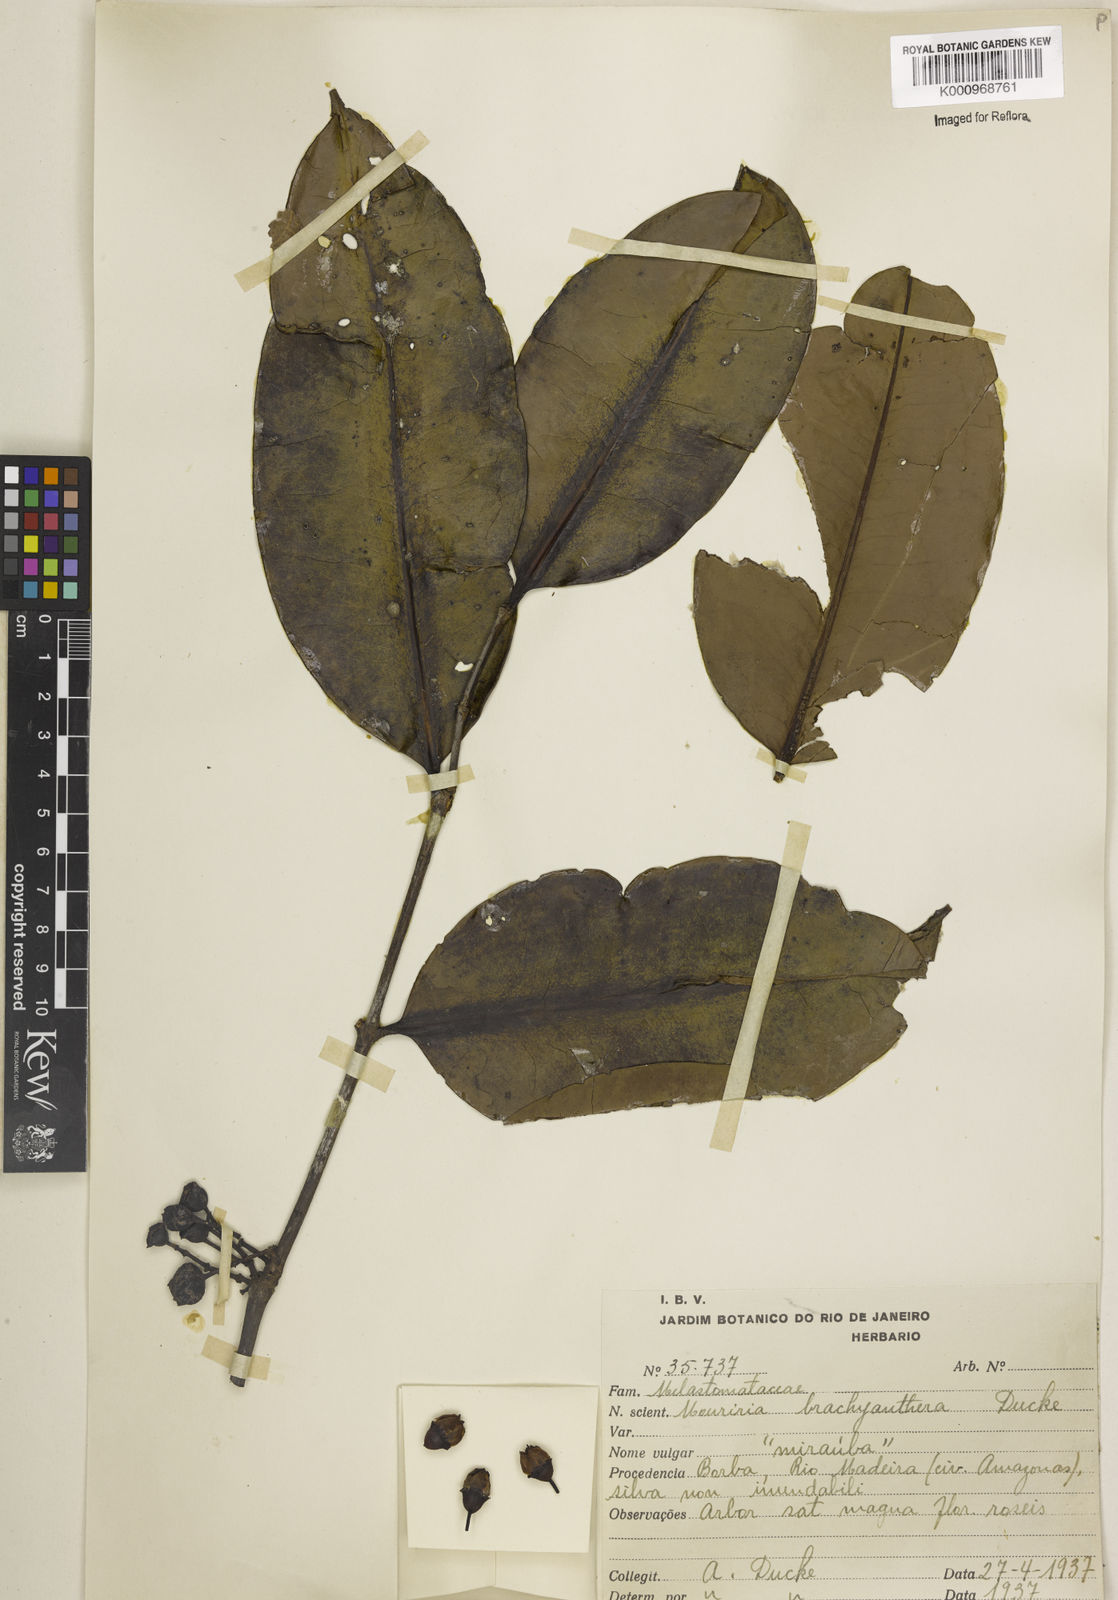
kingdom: Plantae
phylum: Tracheophyta
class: Magnoliopsida
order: Myrtales
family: Melastomataceae
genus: Mouriri
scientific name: Mouriri brachyanthera
